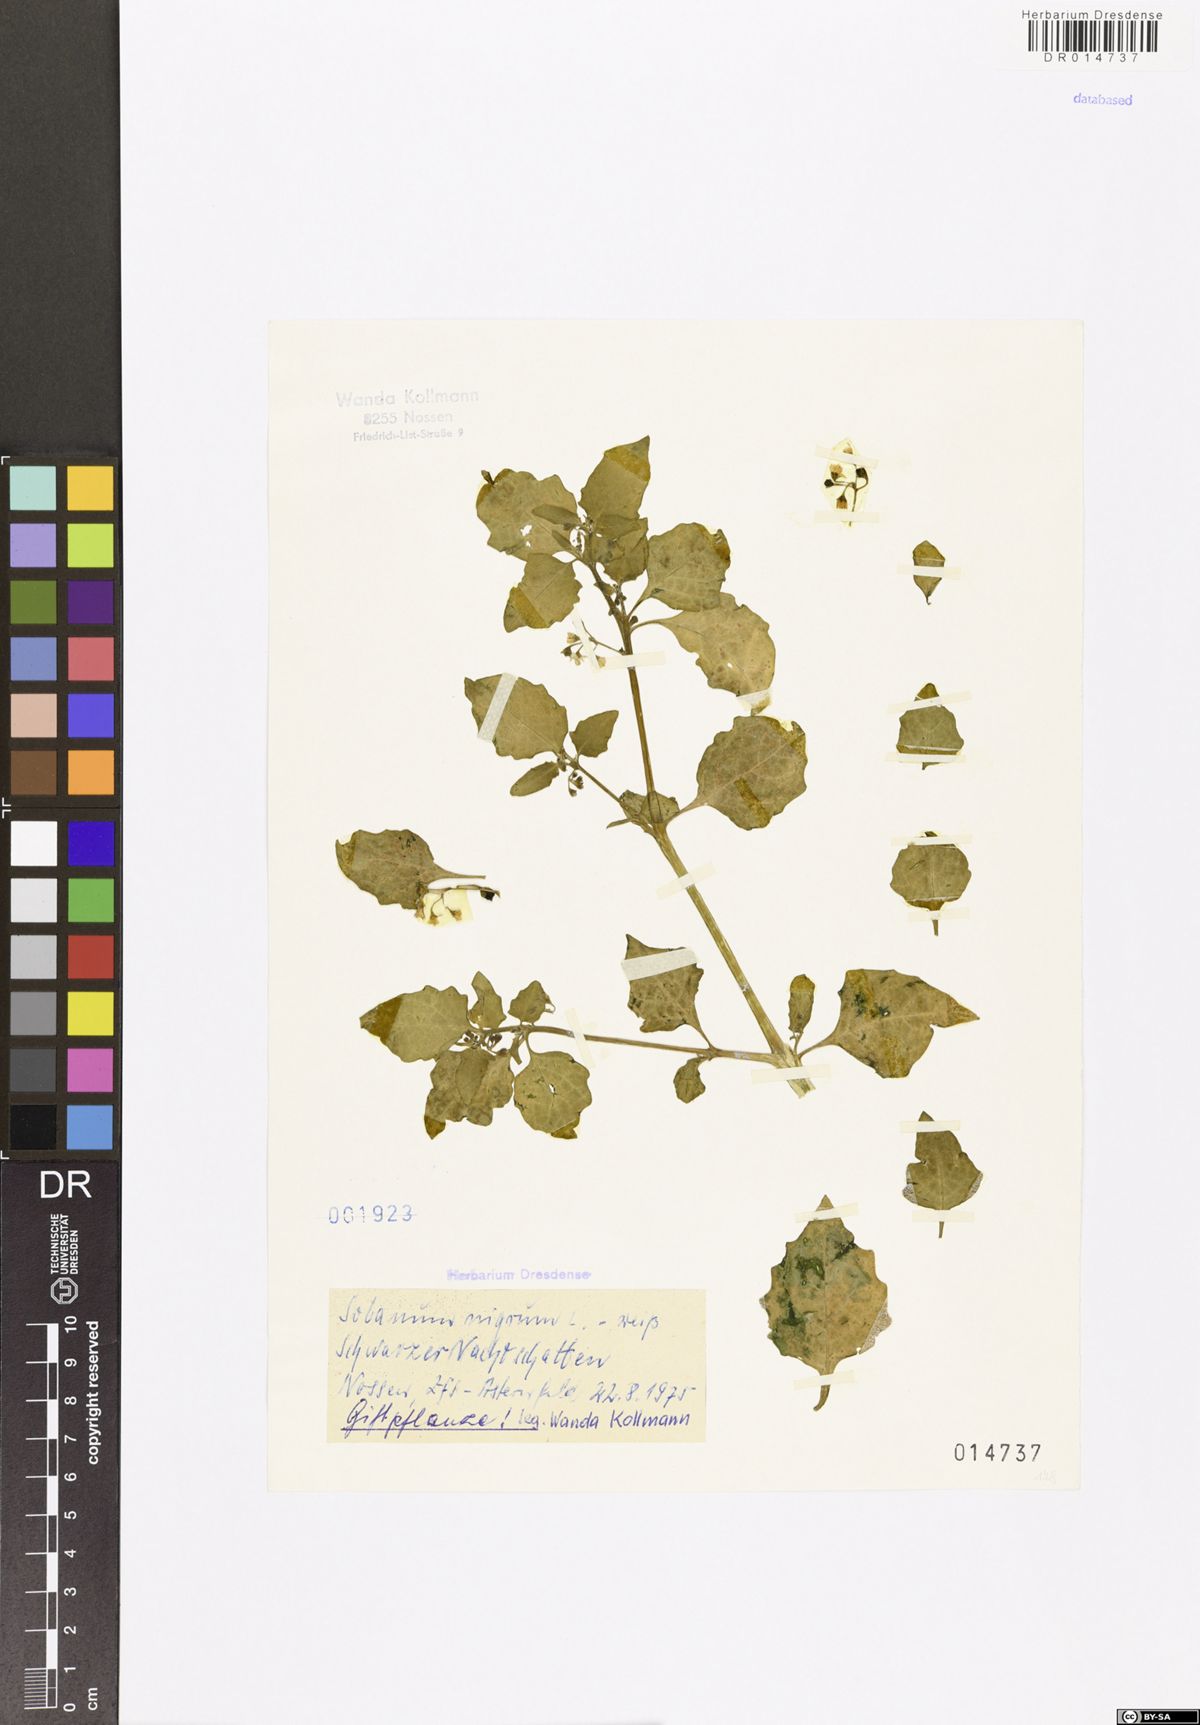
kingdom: Plantae
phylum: Tracheophyta
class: Magnoliopsida
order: Solanales
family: Solanaceae
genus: Solanum
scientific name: Solanum nigrum
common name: Black nightshade
